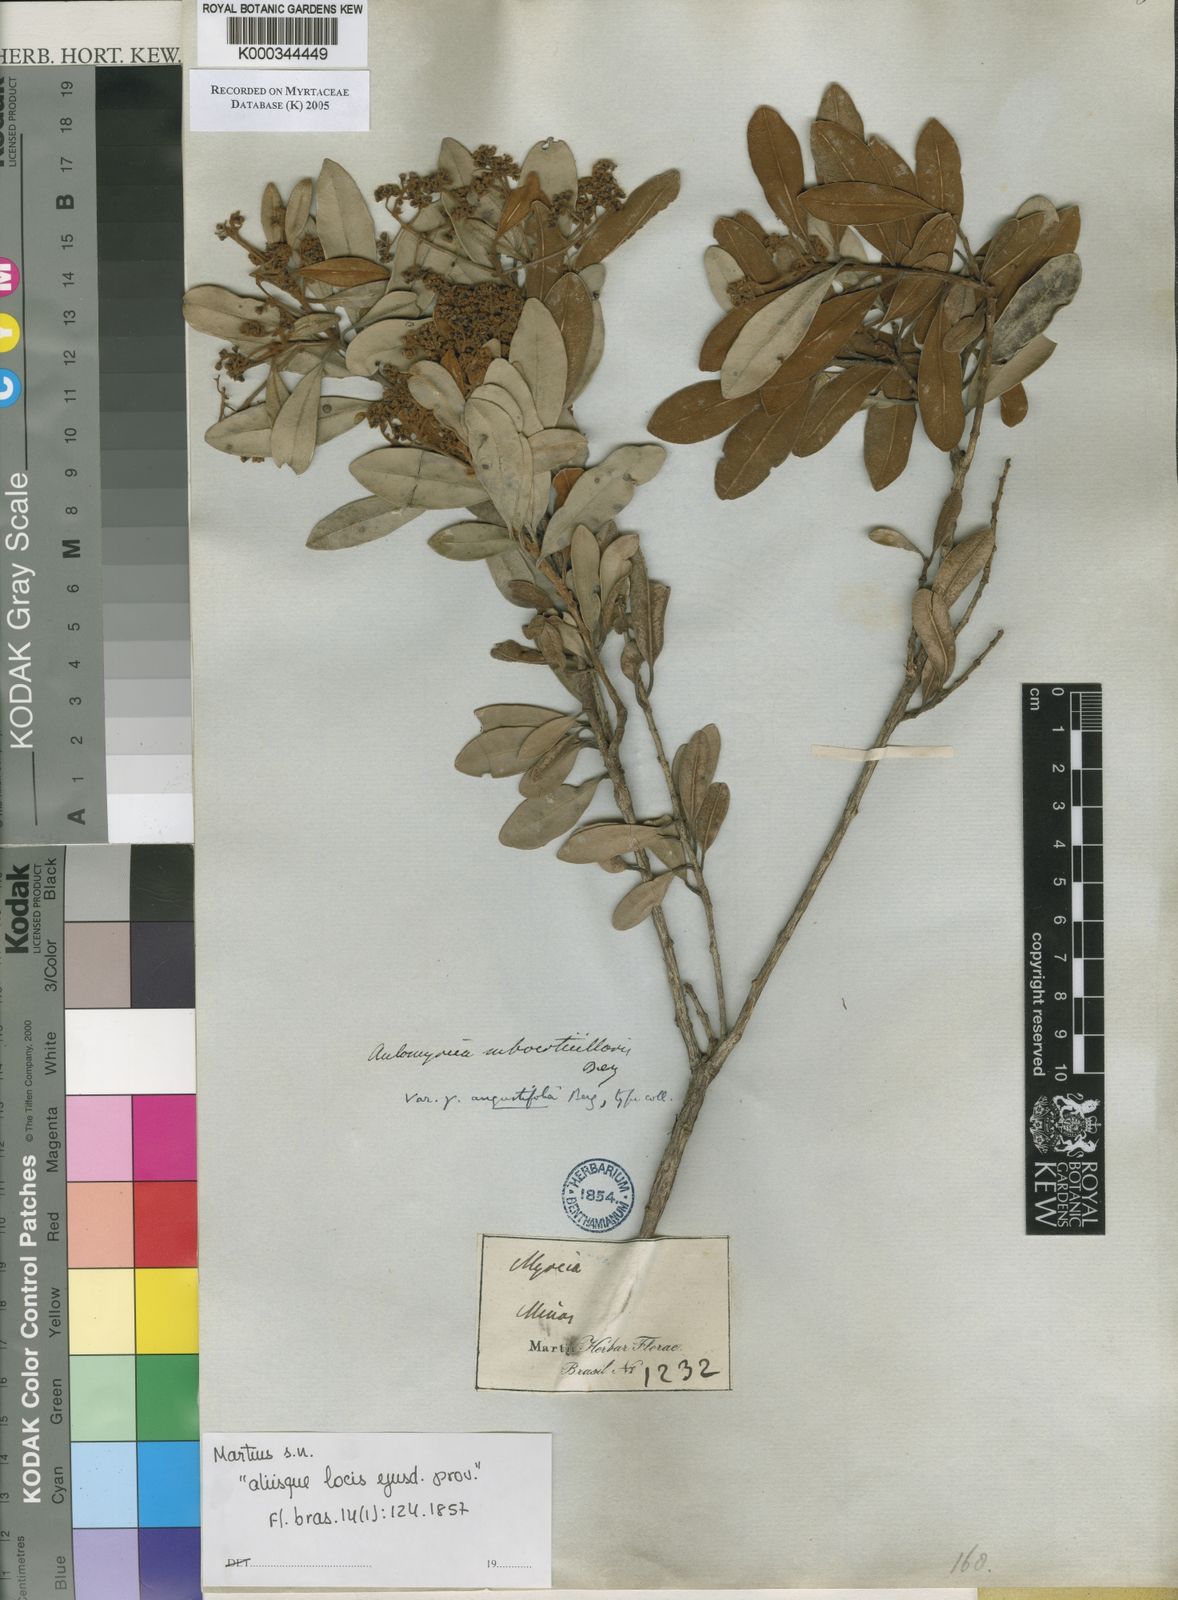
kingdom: Plantae
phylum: Tracheophyta
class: Magnoliopsida
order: Myrtales
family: Myrtaceae
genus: Myrcia
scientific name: Myrcia
